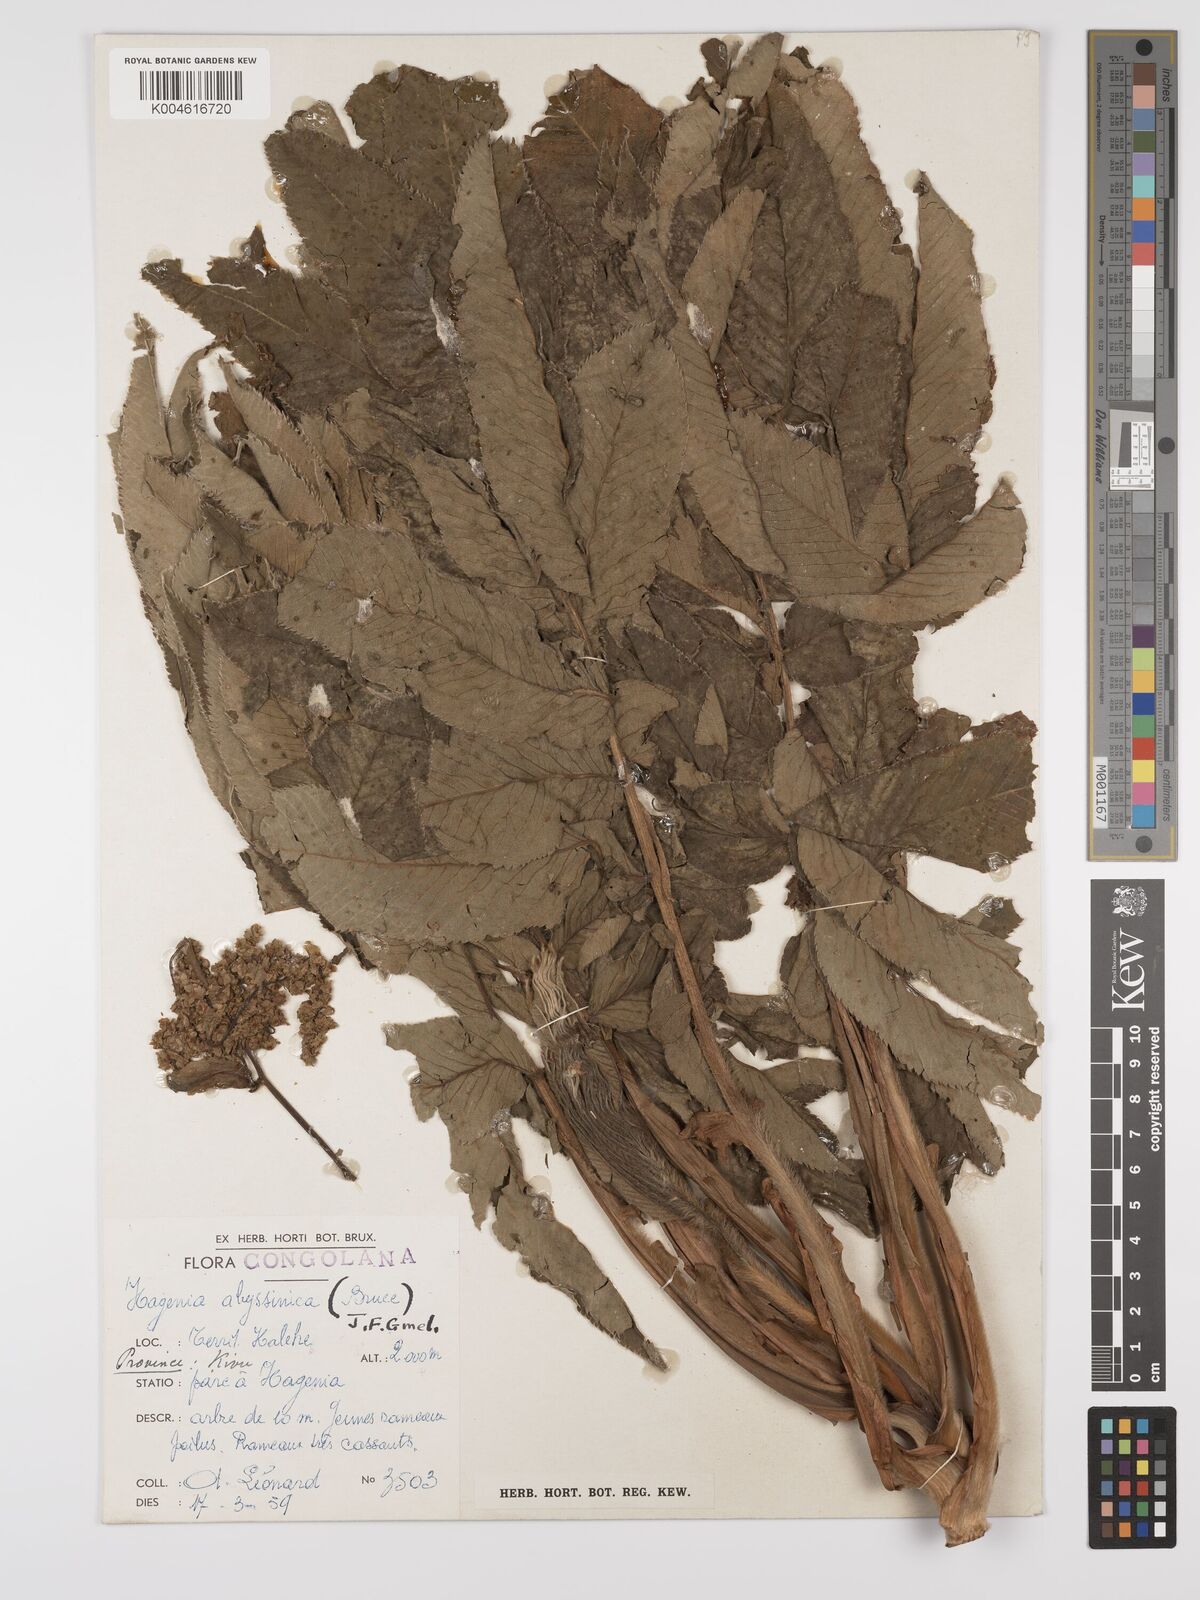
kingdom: Plantae
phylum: Tracheophyta
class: Magnoliopsida
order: Rosales
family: Rosaceae
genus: Hagenia
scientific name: Hagenia abyssinica
